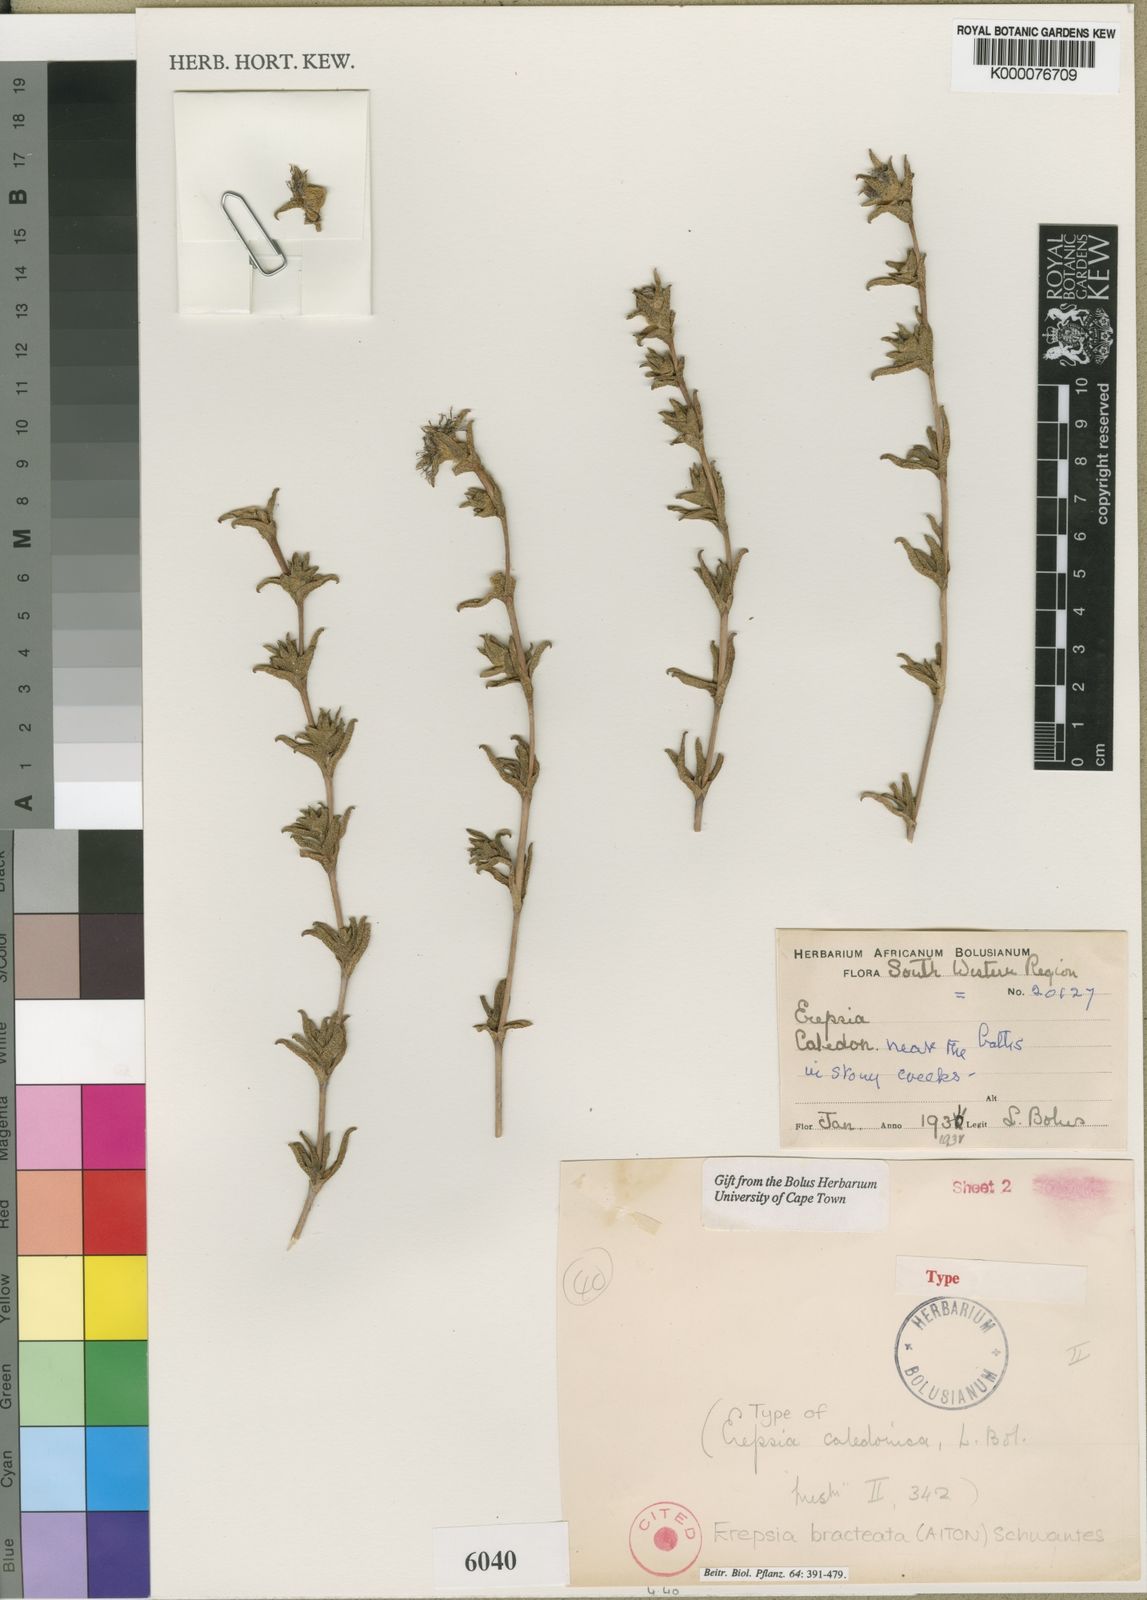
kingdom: Plantae
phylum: Tracheophyta
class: Magnoliopsida
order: Caryophyllales
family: Aizoaceae
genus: Erepsia
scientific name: Erepsia bracteata
